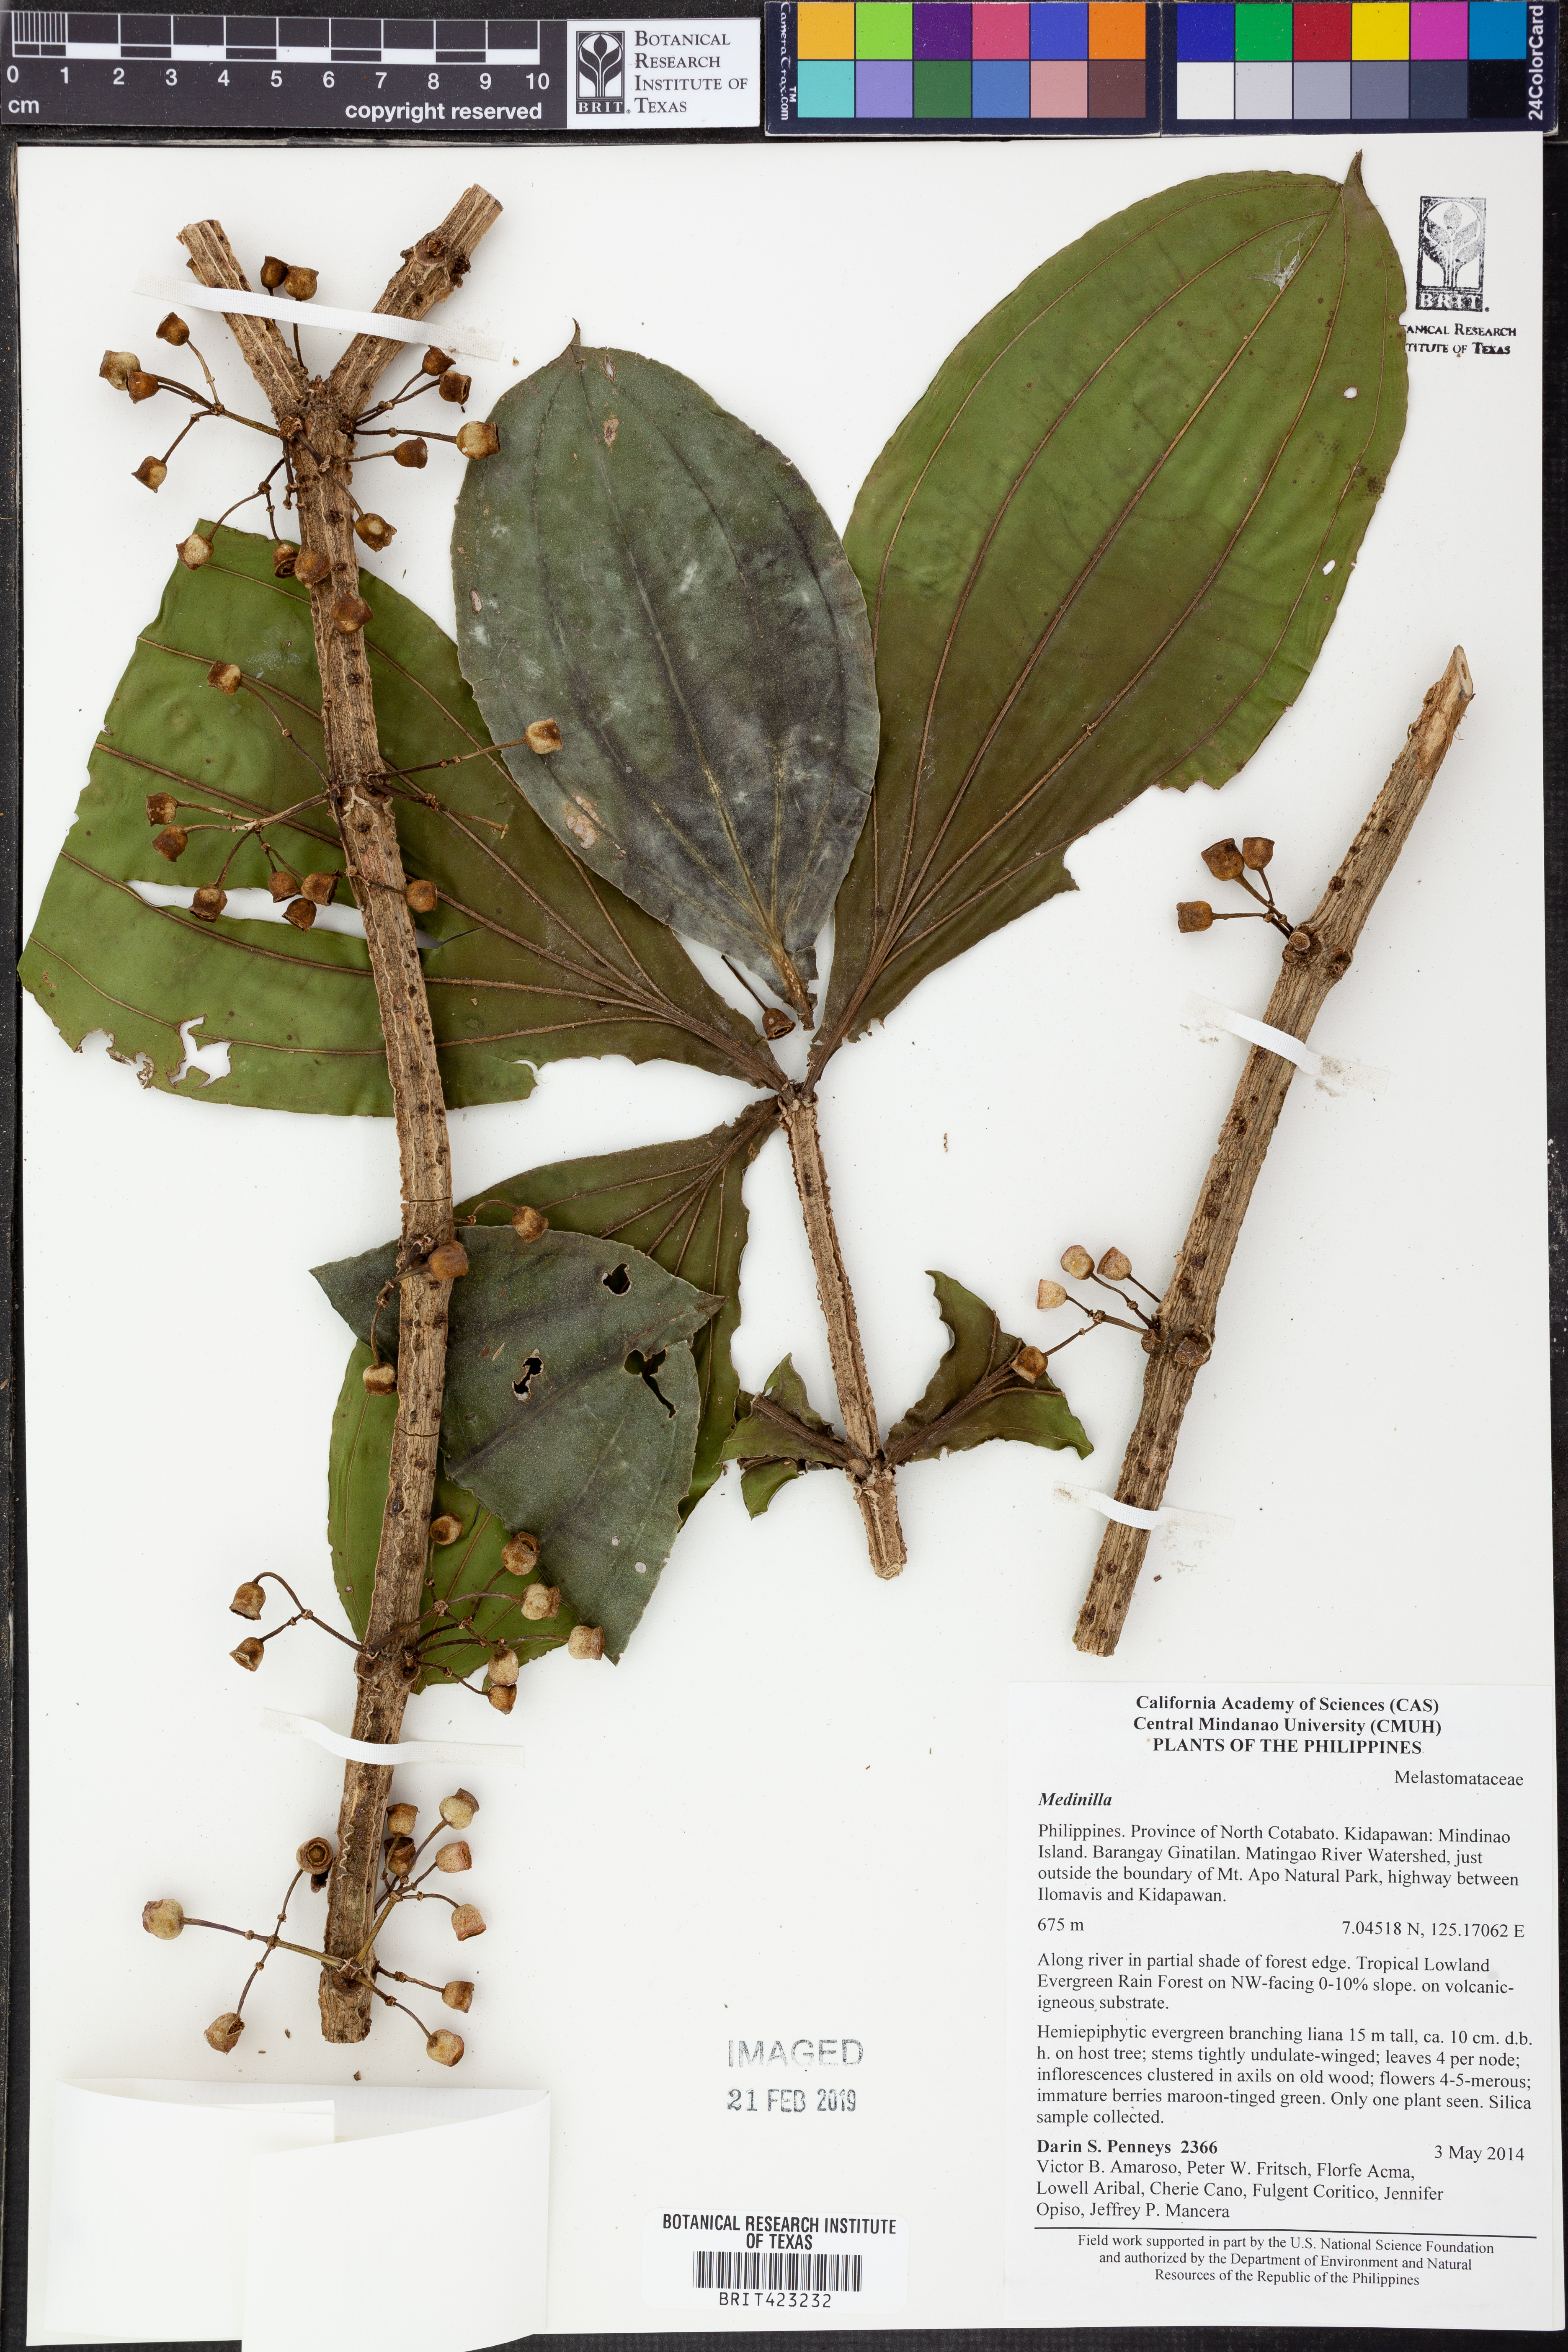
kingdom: Plantae
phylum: Tracheophyta
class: Magnoliopsida
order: Myrtales
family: Melastomataceae
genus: Medinilla
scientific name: Medinilla
